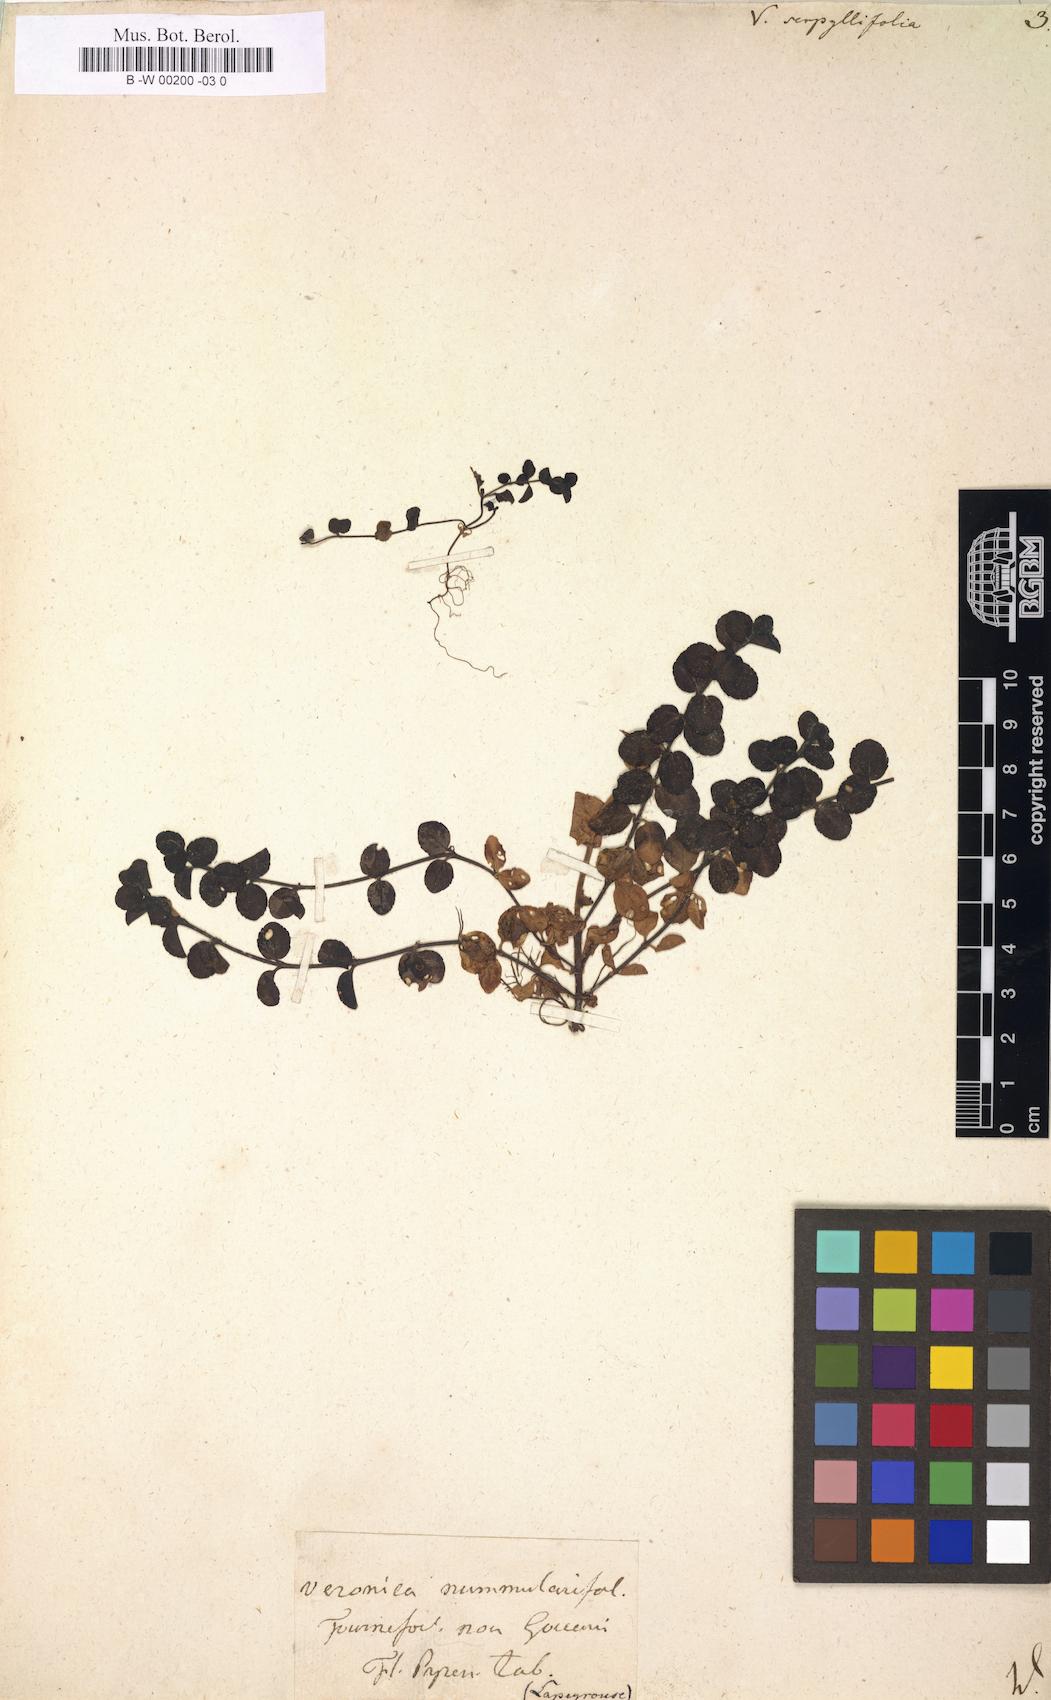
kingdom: Plantae
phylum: Tracheophyta
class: Magnoliopsida
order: Lamiales
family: Plantaginaceae
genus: Veronica
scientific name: Veronica serpyllifolia
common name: Thyme-leaved speedwell
